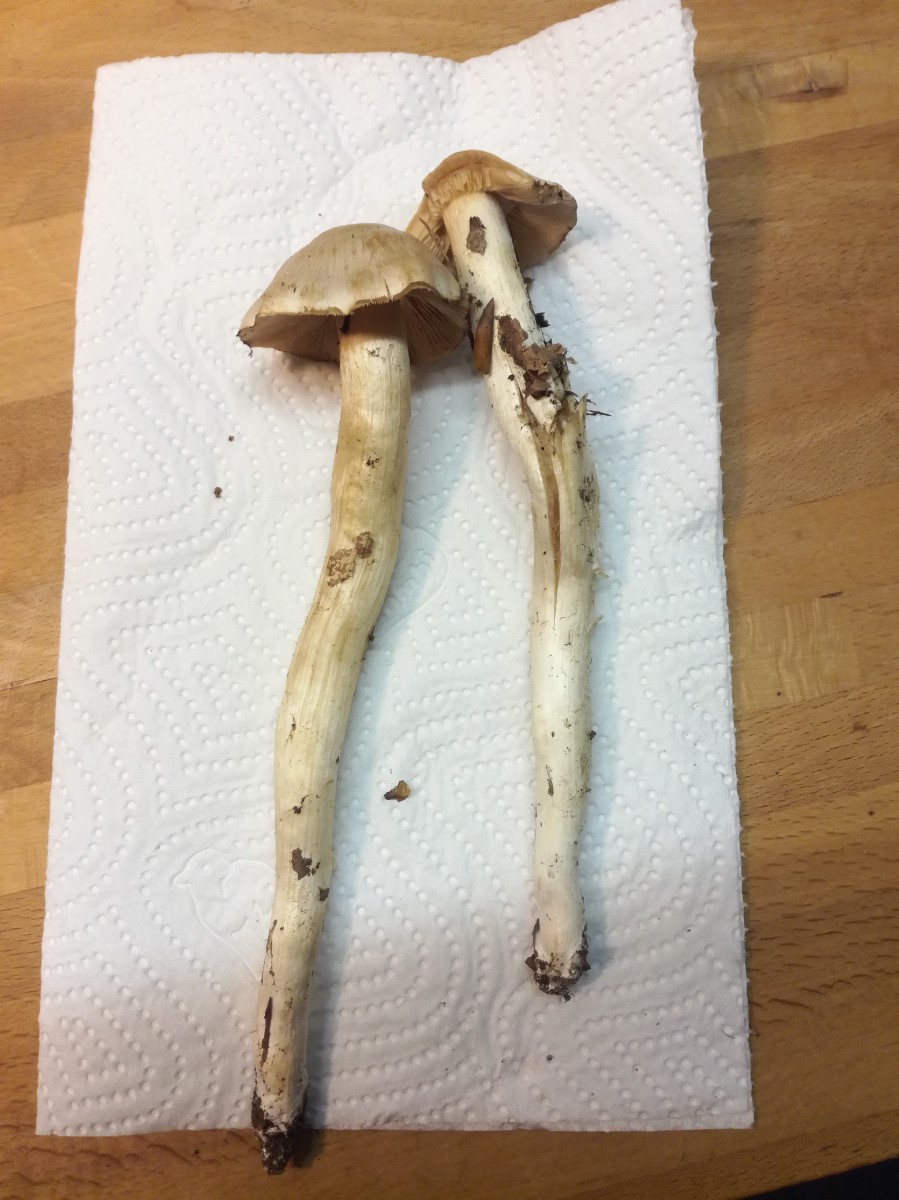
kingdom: Fungi
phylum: Basidiomycota
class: Agaricomycetes
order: Agaricales
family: Hymenogastraceae
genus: Hebeloma
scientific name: Hebeloma
